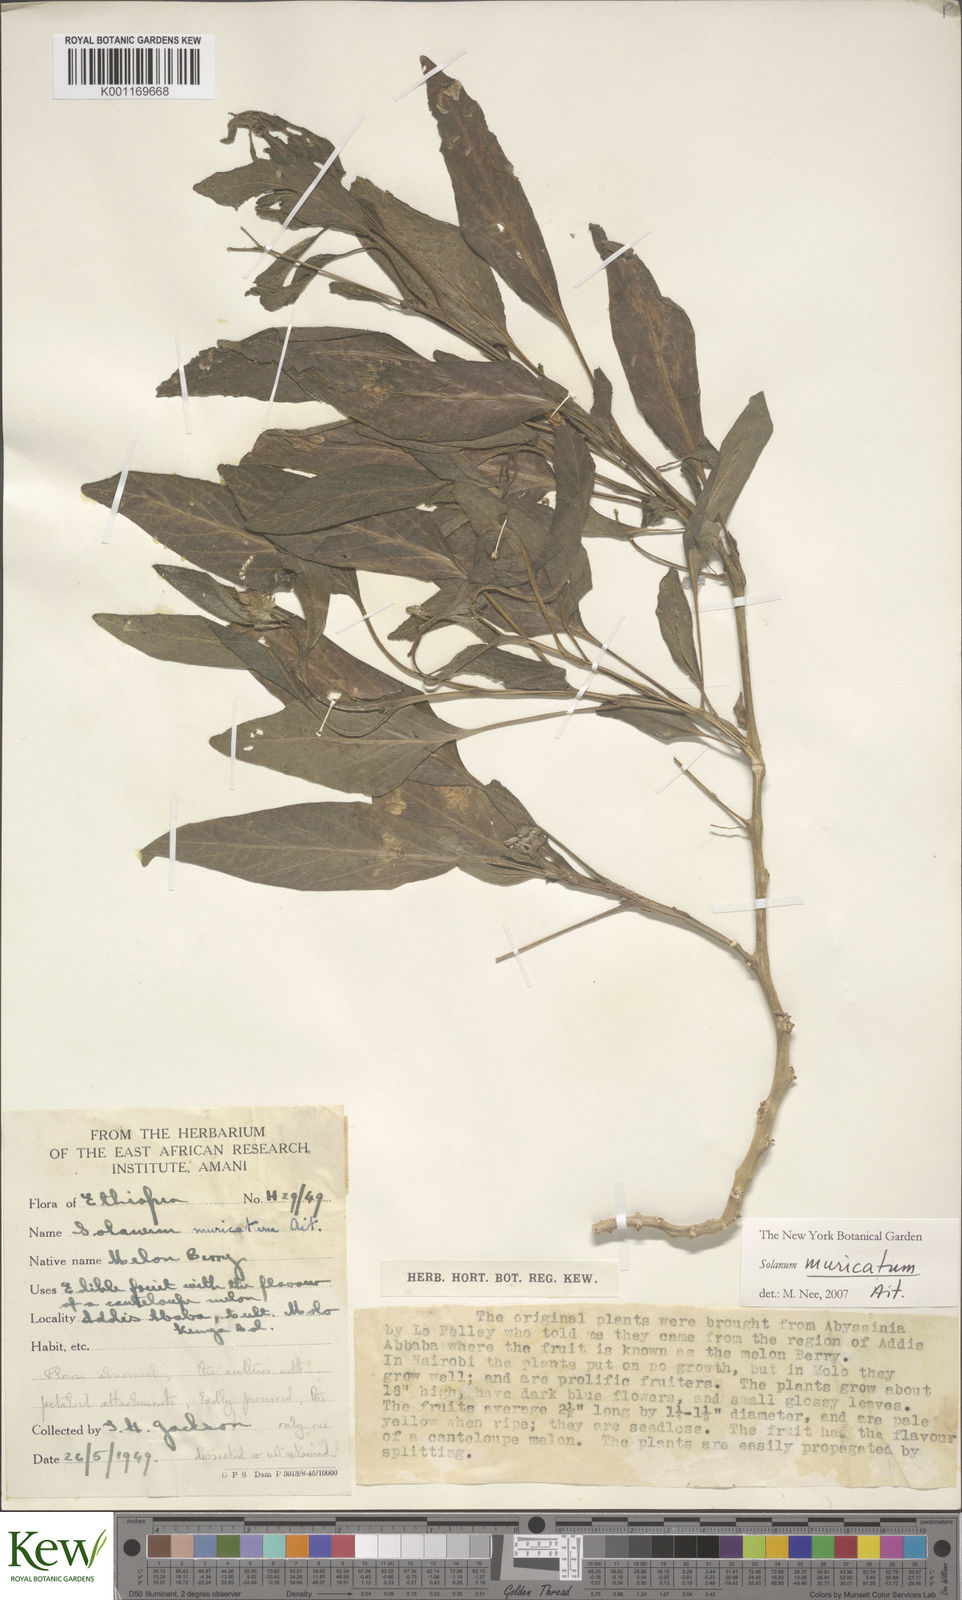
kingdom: Plantae
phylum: Tracheophyta
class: Magnoliopsida
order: Solanales
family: Solanaceae
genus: Solanum
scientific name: Solanum muricatum
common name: Peruvian pepino
